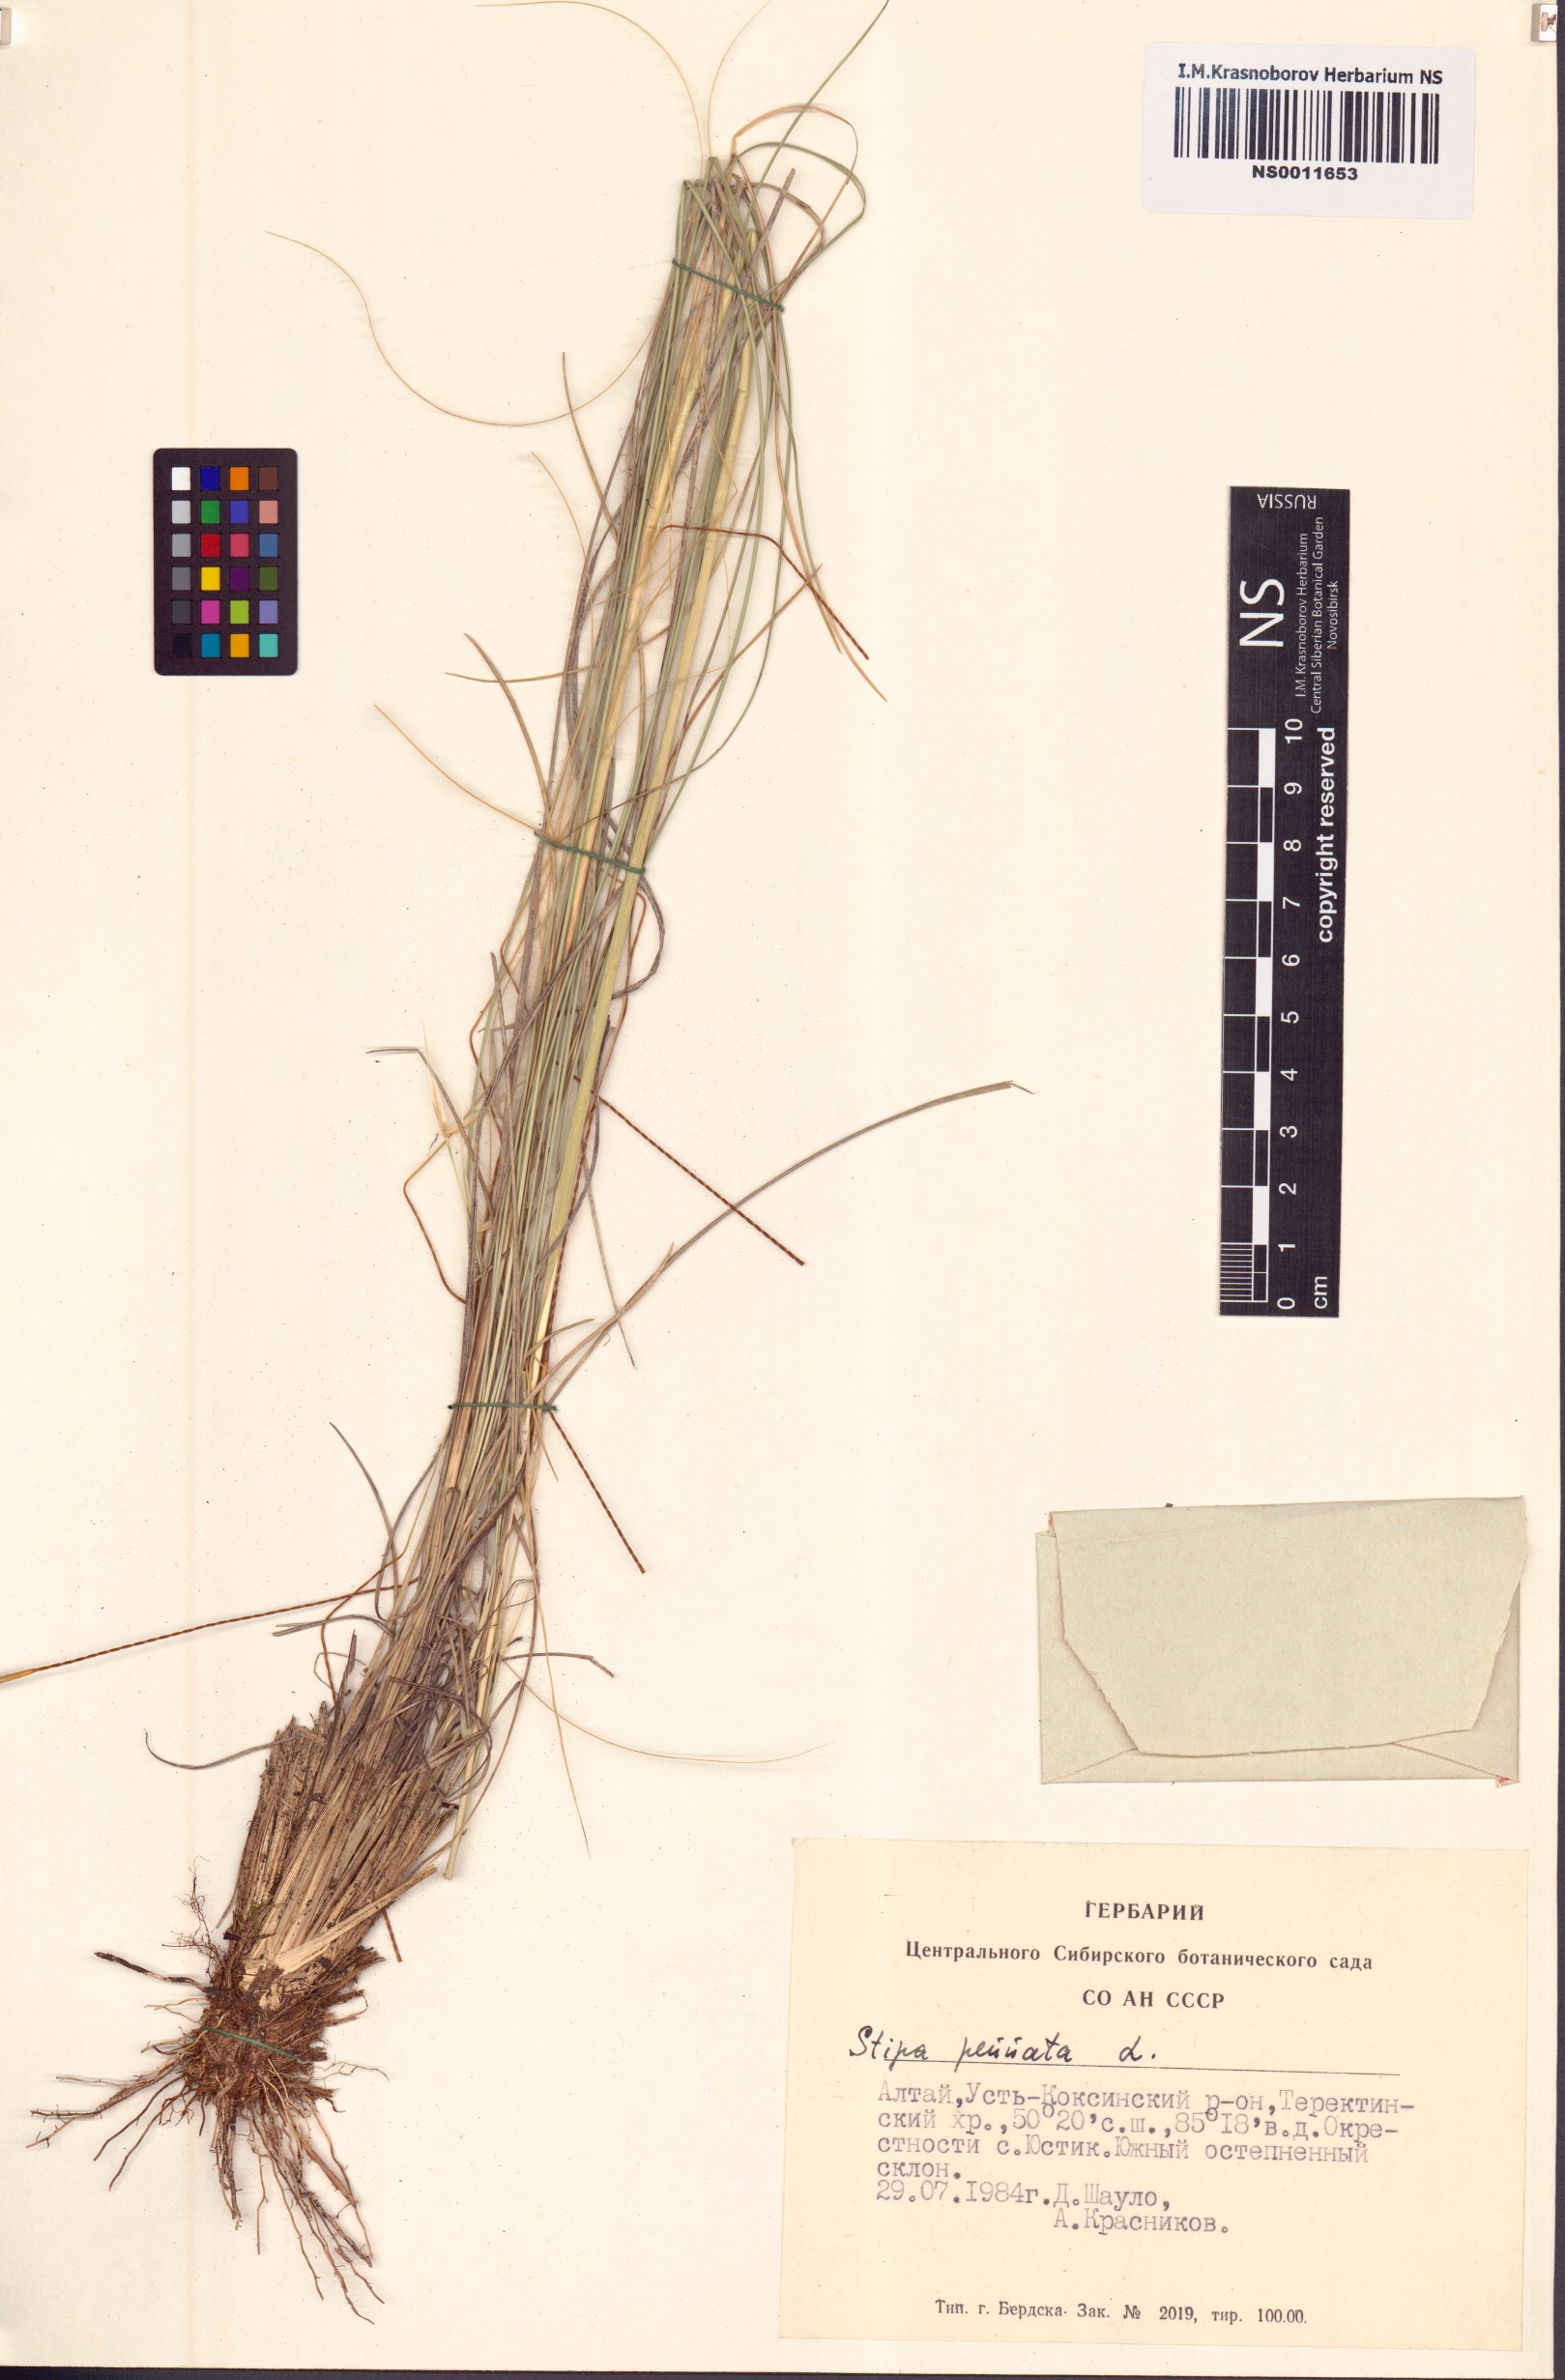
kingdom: Plantae
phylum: Tracheophyta
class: Liliopsida
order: Poales
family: Poaceae
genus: Stipa
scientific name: Stipa pennata
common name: European feather grass
